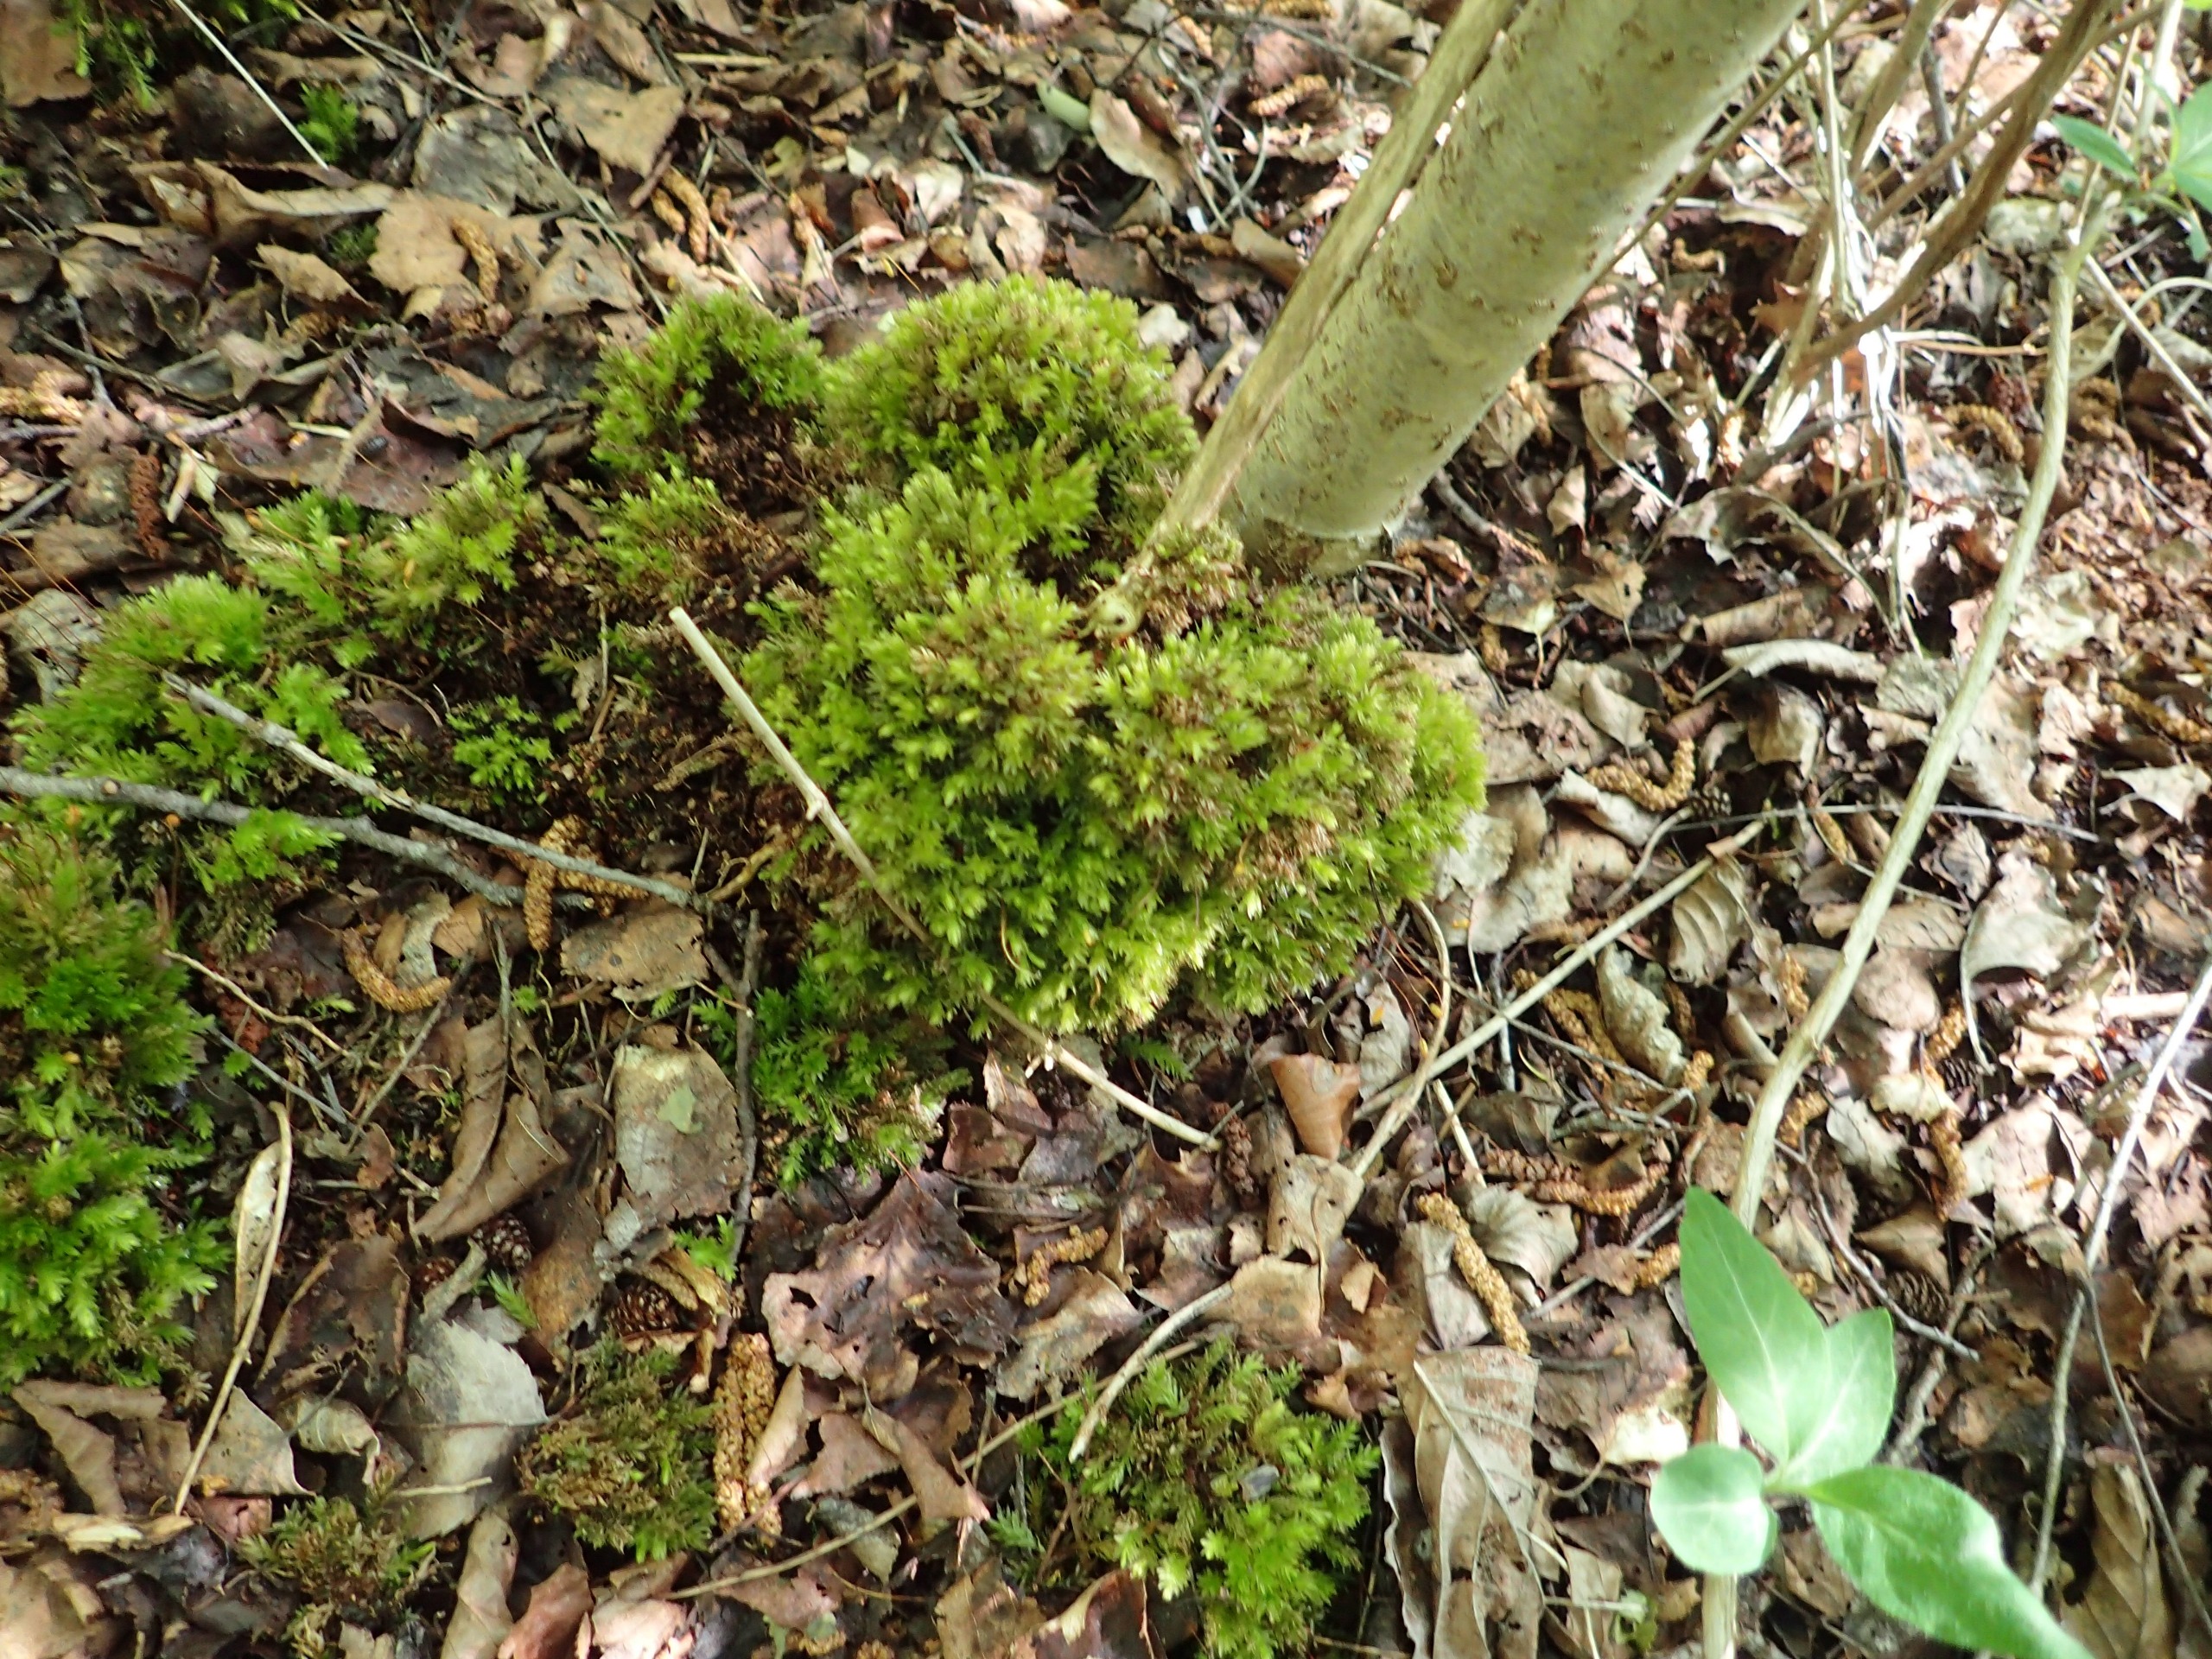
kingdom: Plantae
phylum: Bryophyta
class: Bryopsida
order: Bryales
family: Mniaceae
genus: Mnium
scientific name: Mnium hornum
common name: Brunfiltet stjernemos
